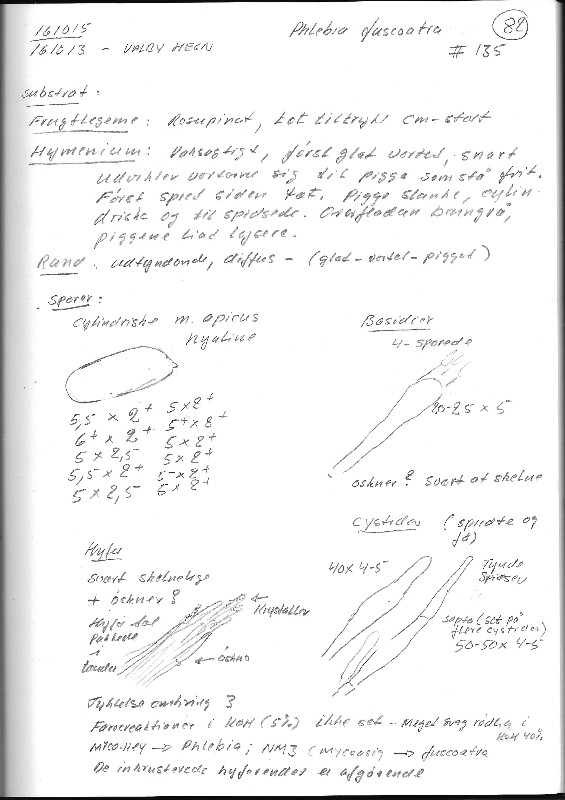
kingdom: Fungi
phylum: Basidiomycota
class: Agaricomycetes
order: Polyporales
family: Meruliaceae
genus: Mycoacia
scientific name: Mycoacia fuscoatra
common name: mørk vokspig
